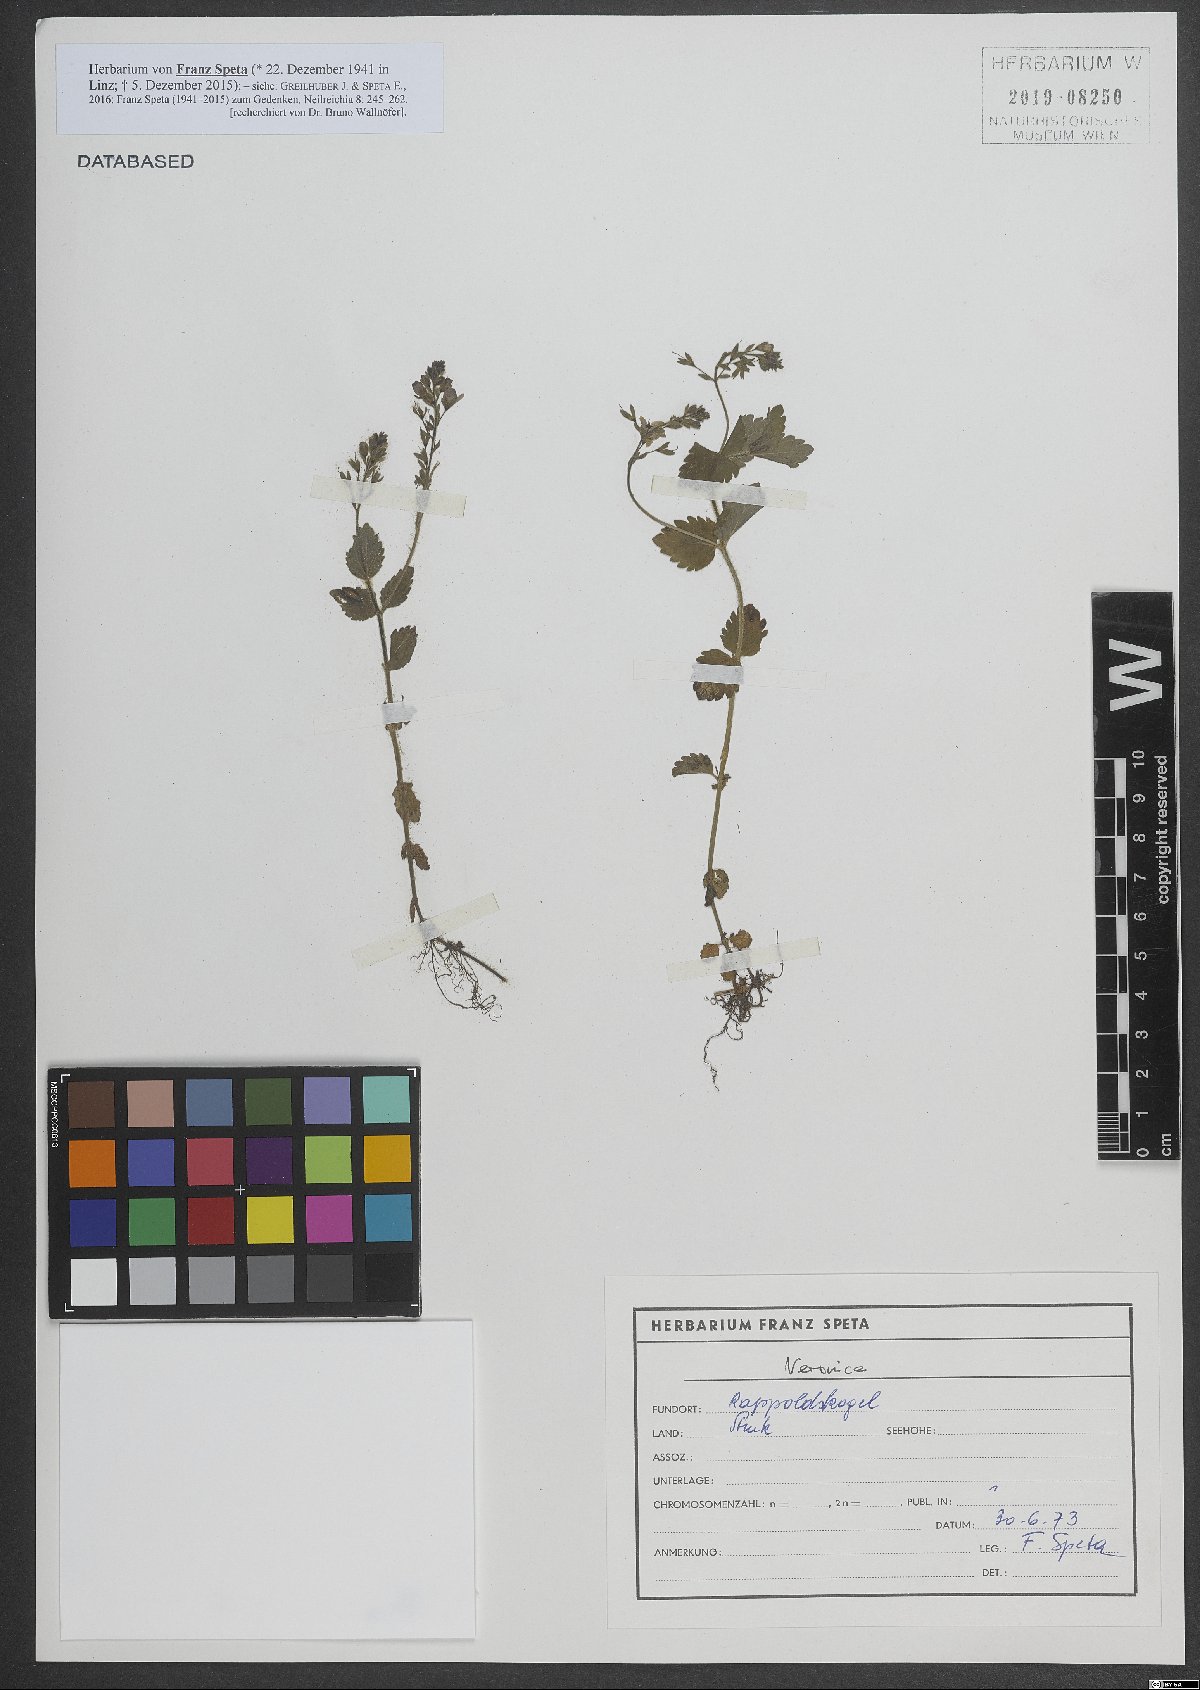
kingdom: Plantae
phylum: Tracheophyta
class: Magnoliopsida
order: Lamiales
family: Plantaginaceae
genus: Veronica
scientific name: Veronica
